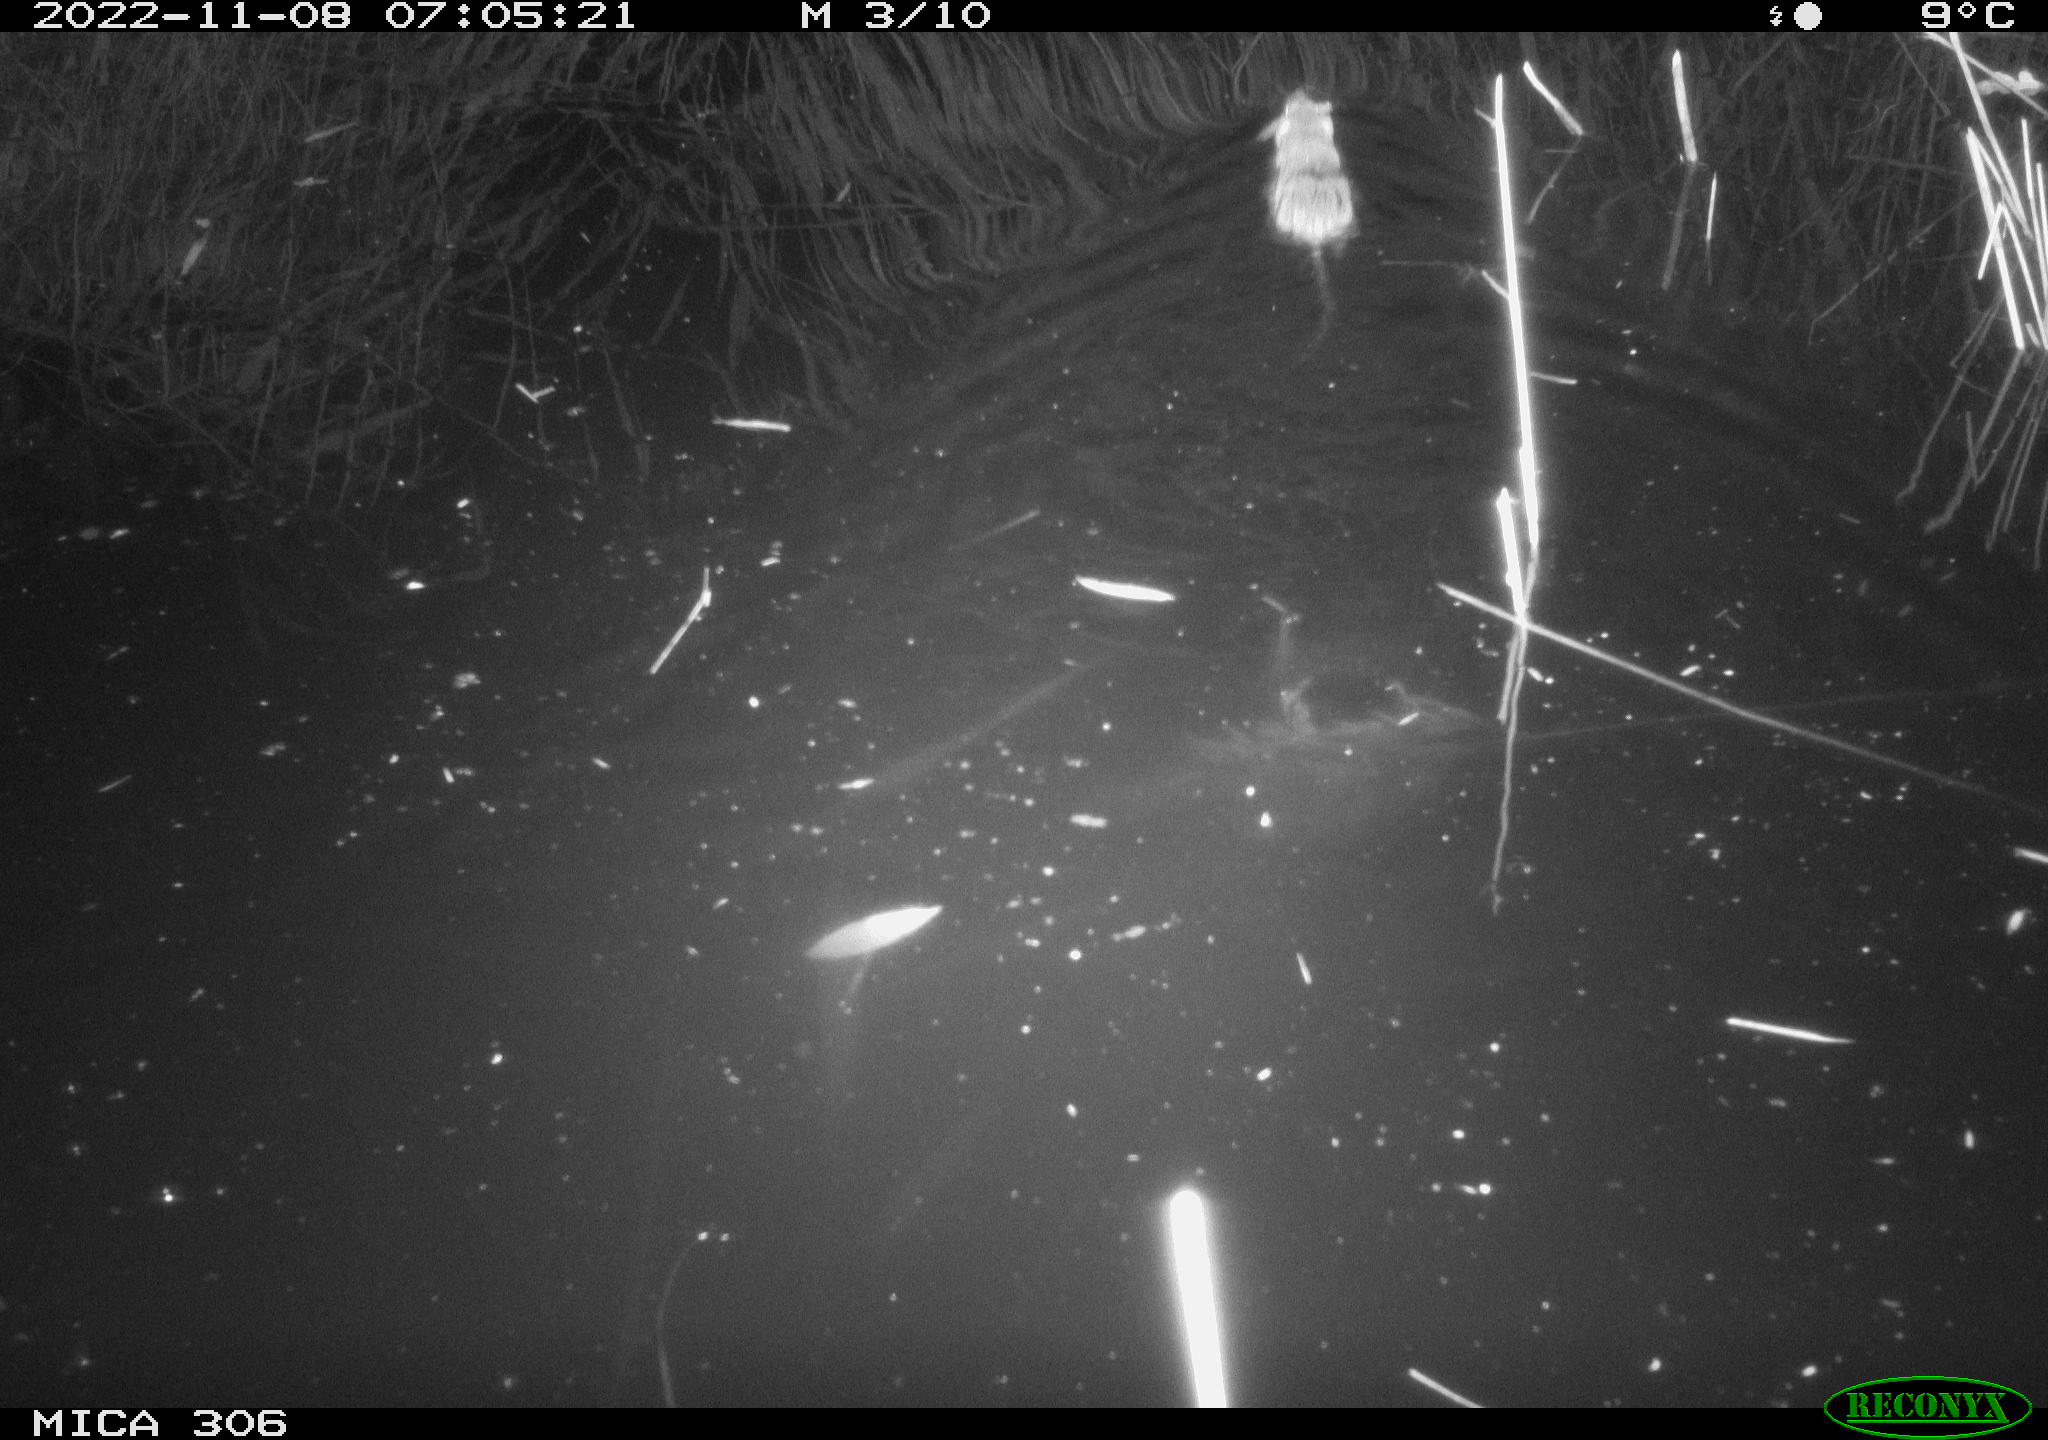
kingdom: Animalia
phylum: Chordata
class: Mammalia
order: Rodentia
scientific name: Rodentia
